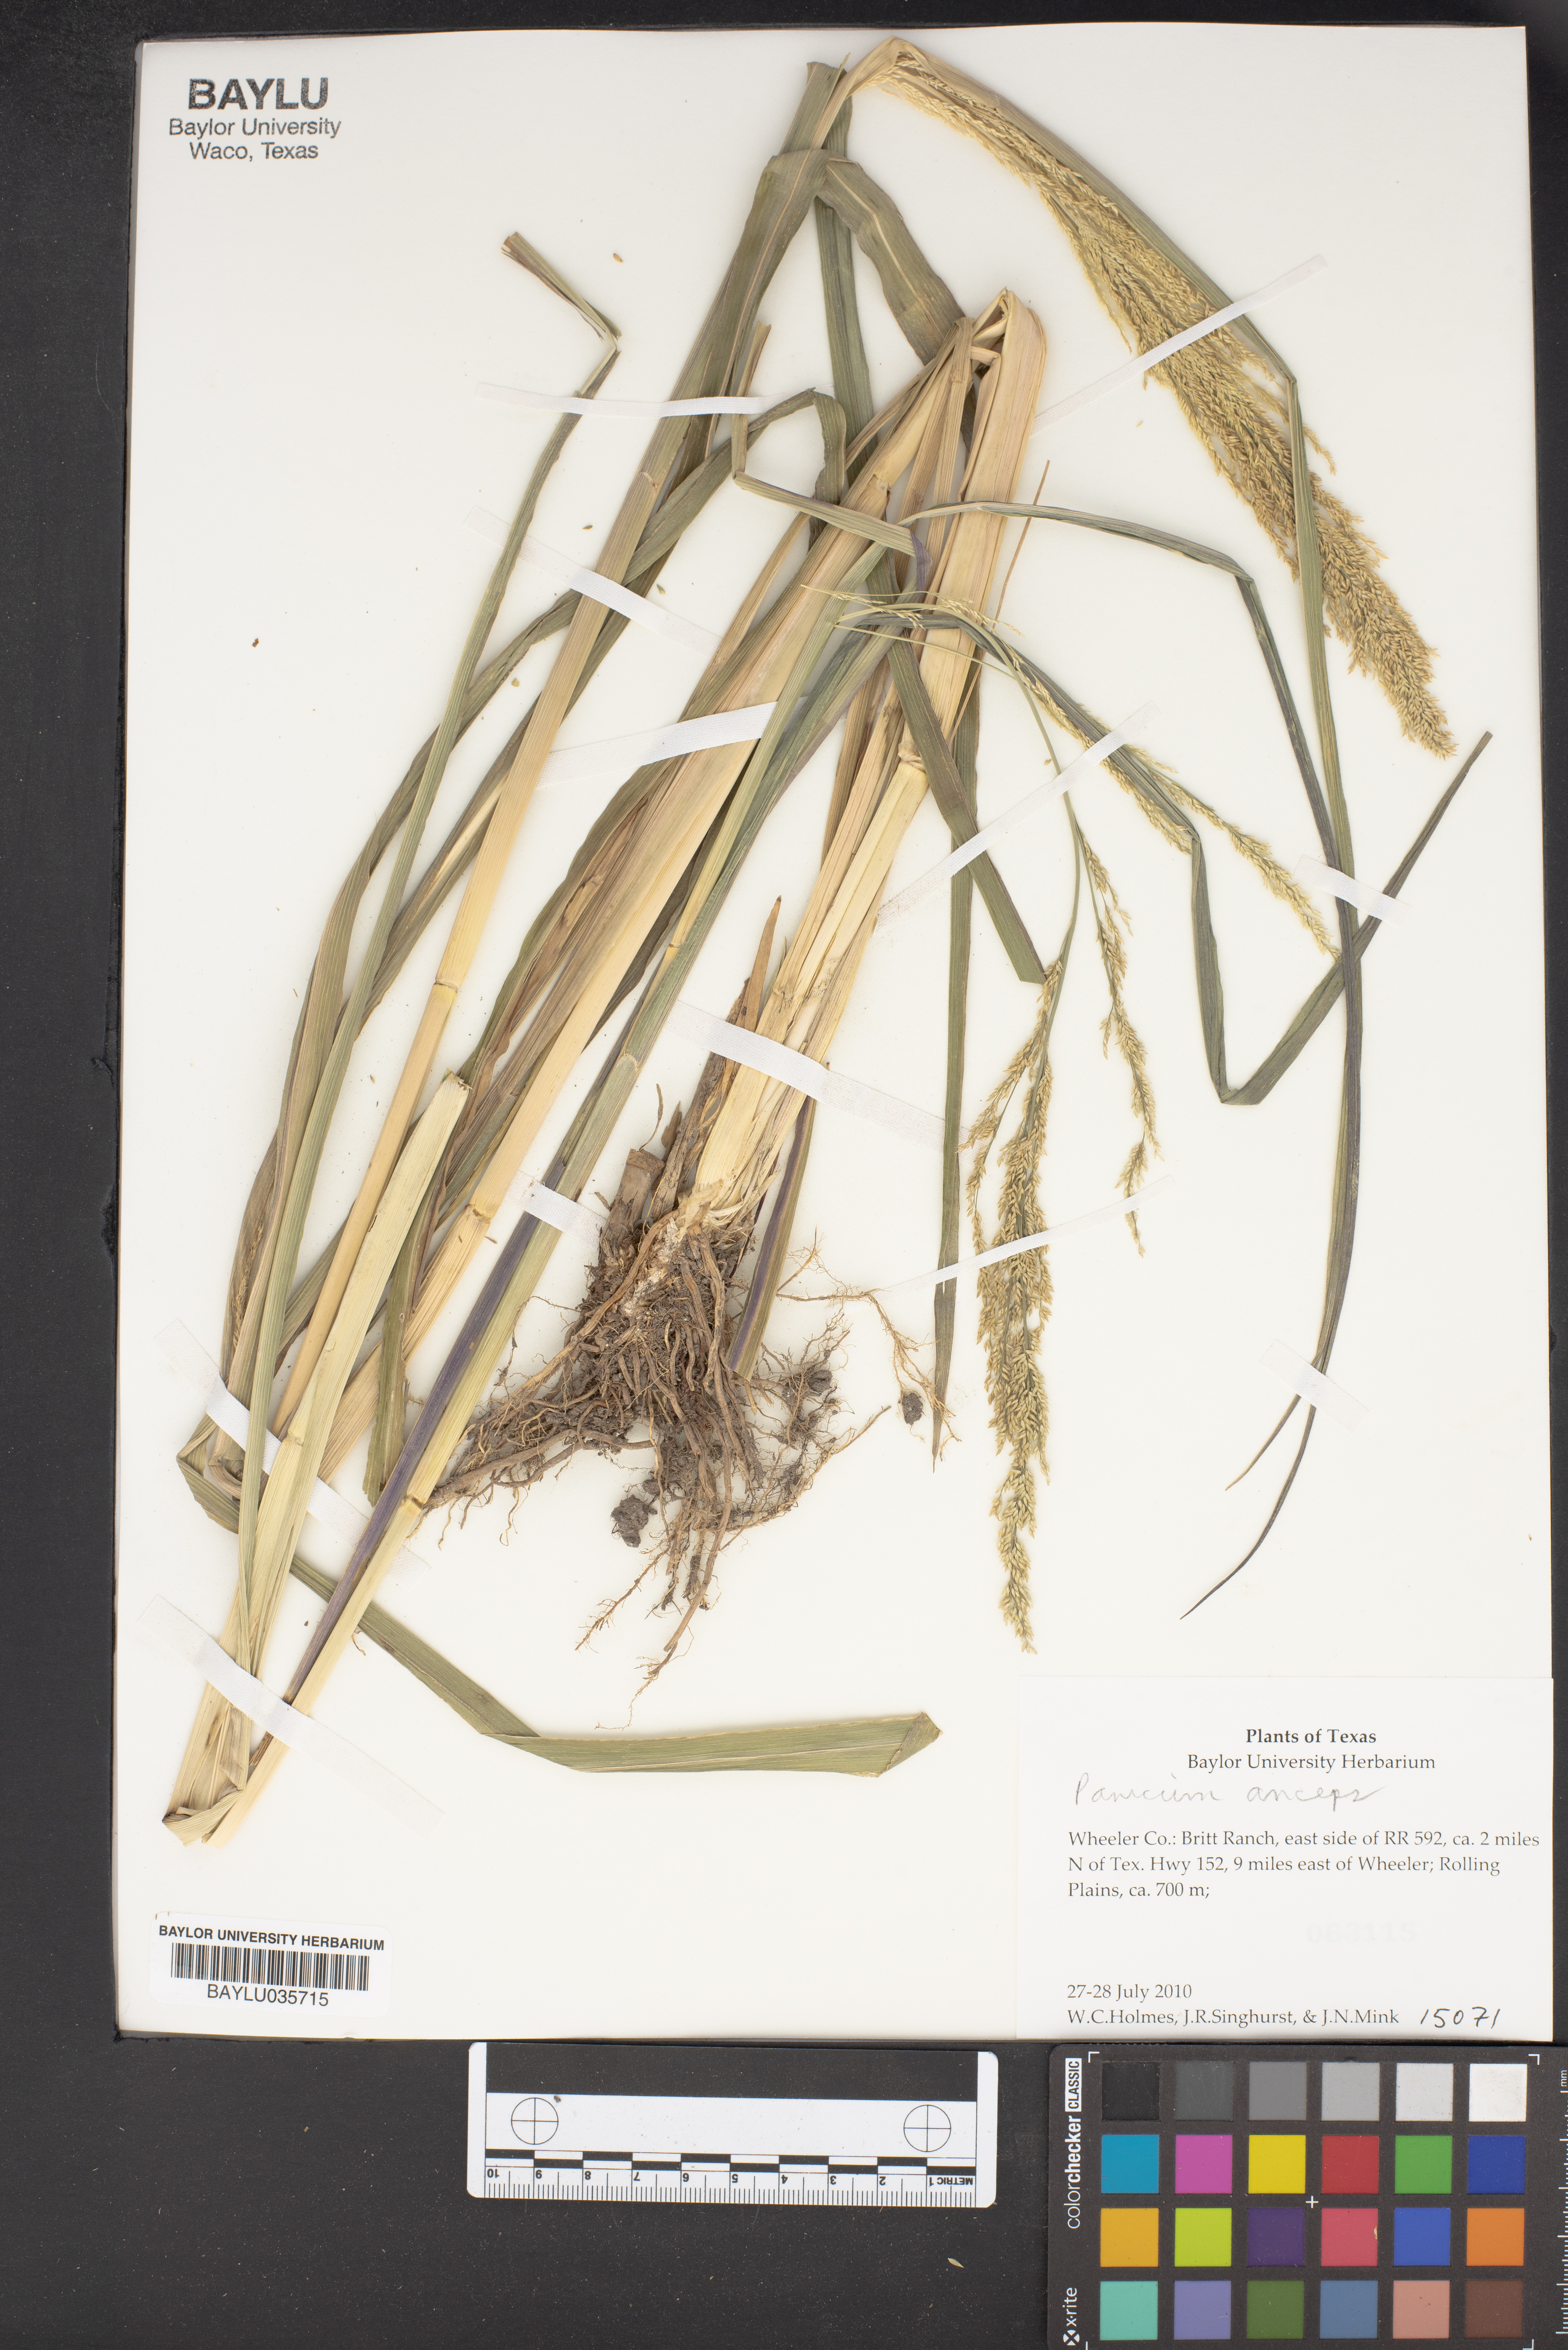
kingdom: Plantae
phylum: Tracheophyta
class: Liliopsida
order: Poales
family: Poaceae
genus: Coleataenia
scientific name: Coleataenia anceps
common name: Beaked panic grass
